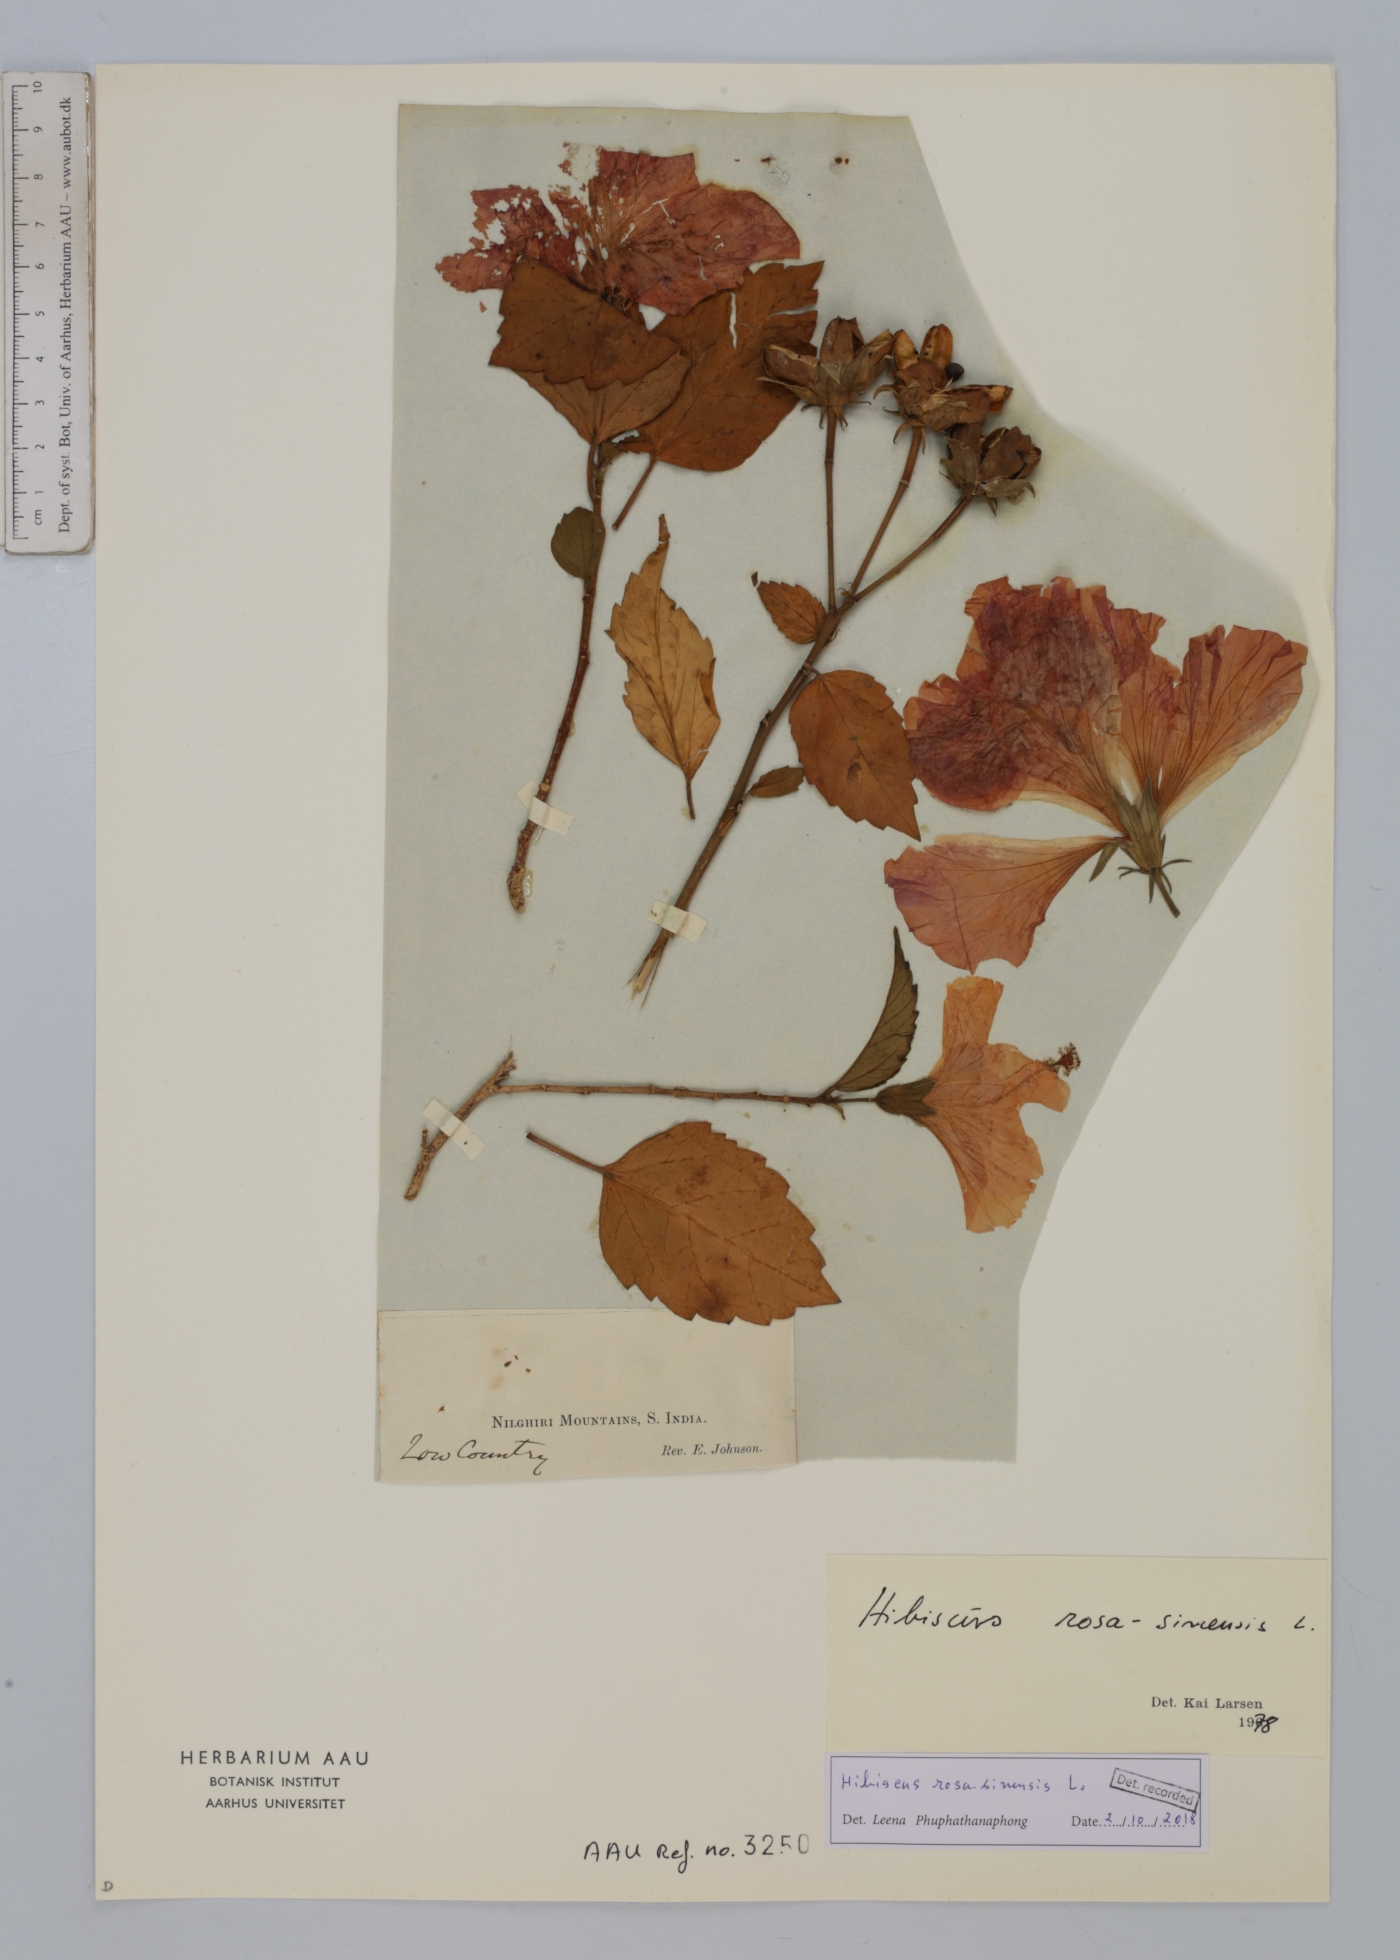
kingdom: Plantae
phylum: Tracheophyta
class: Magnoliopsida
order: Malvales
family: Malvaceae
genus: Hibiscus
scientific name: Hibiscus rosa-sinensis
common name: Hibiscus
